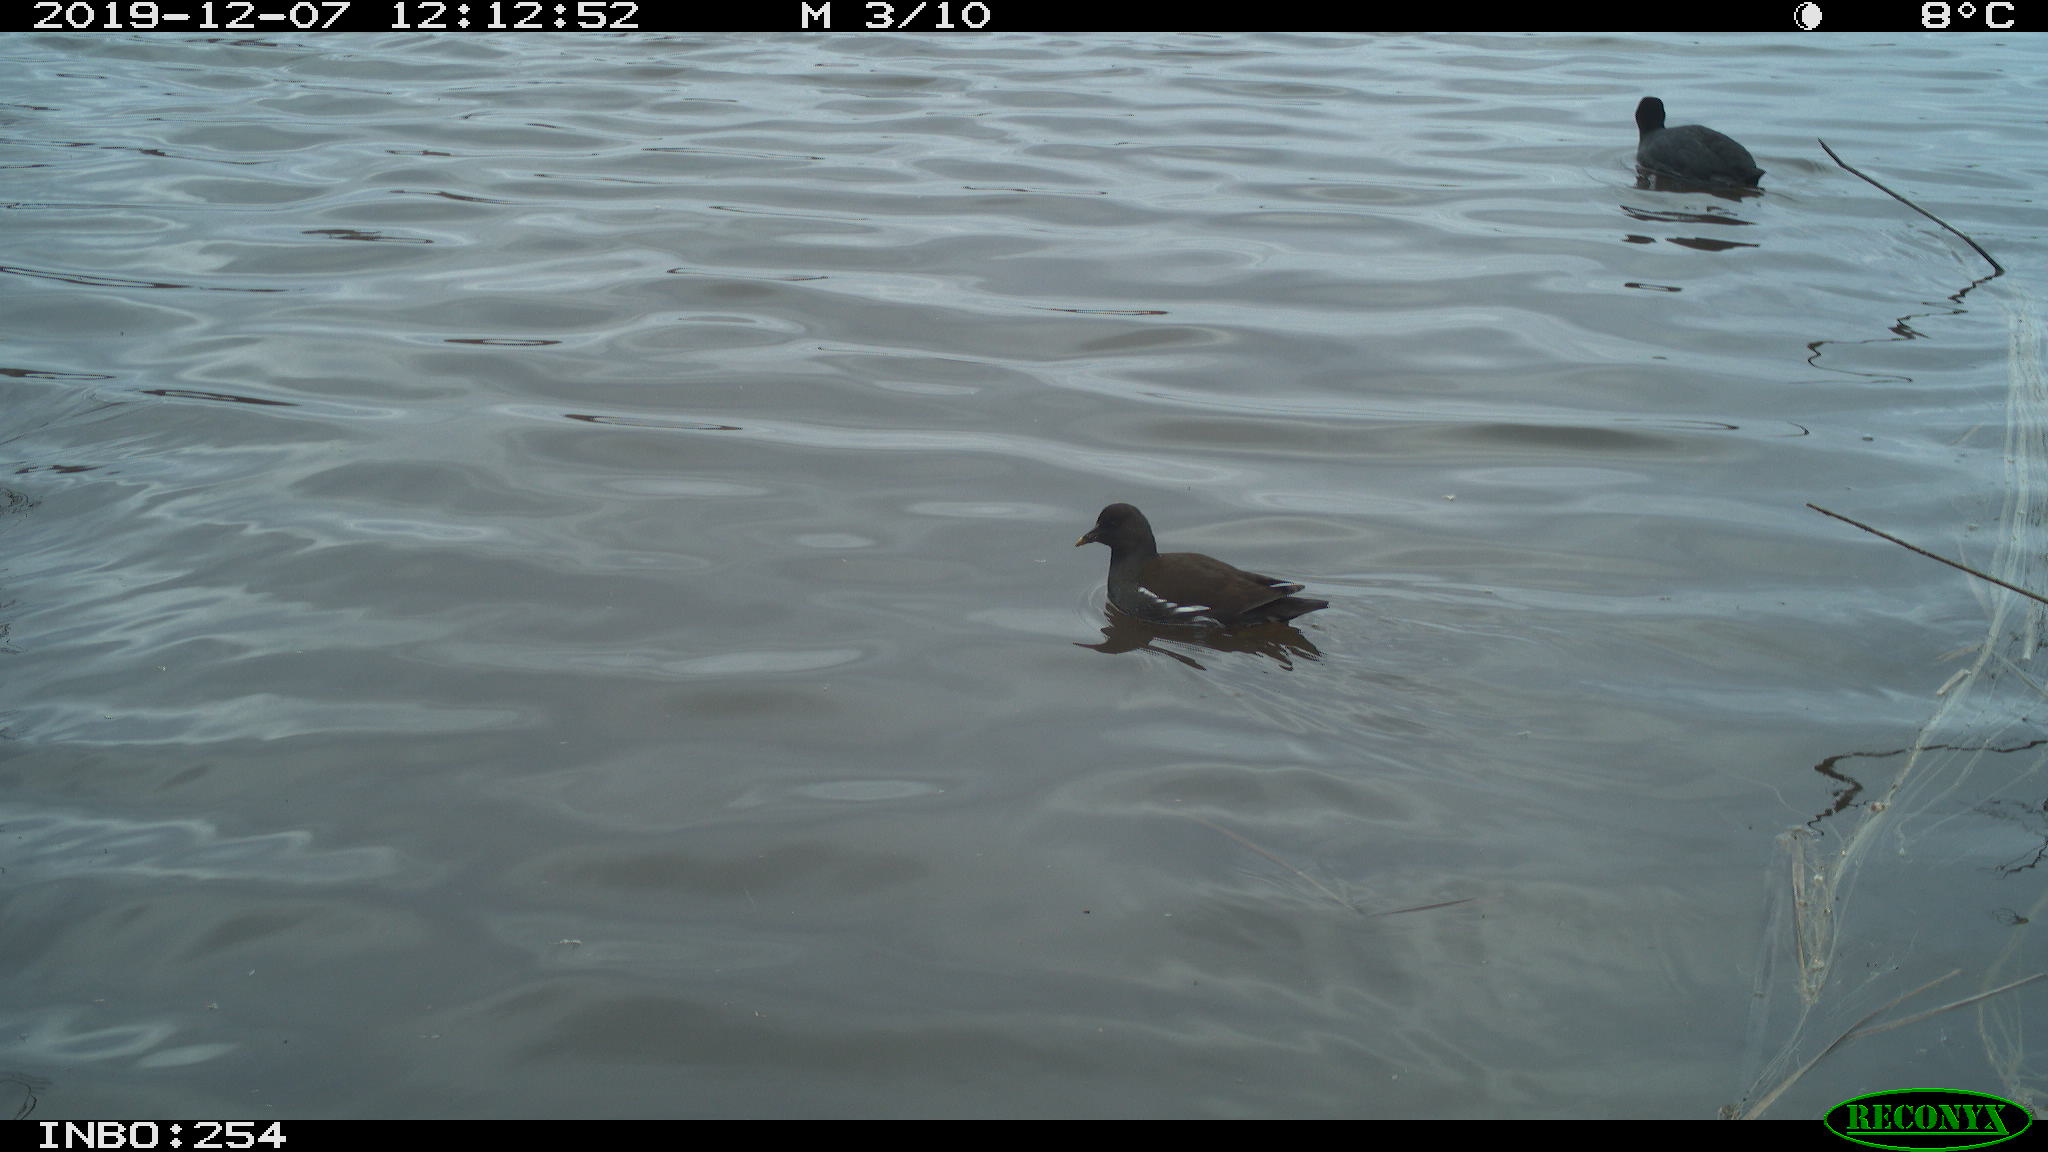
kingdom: Animalia
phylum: Chordata
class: Aves
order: Gruiformes
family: Rallidae
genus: Gallinula
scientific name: Gallinula chloropus
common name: Common moorhen
